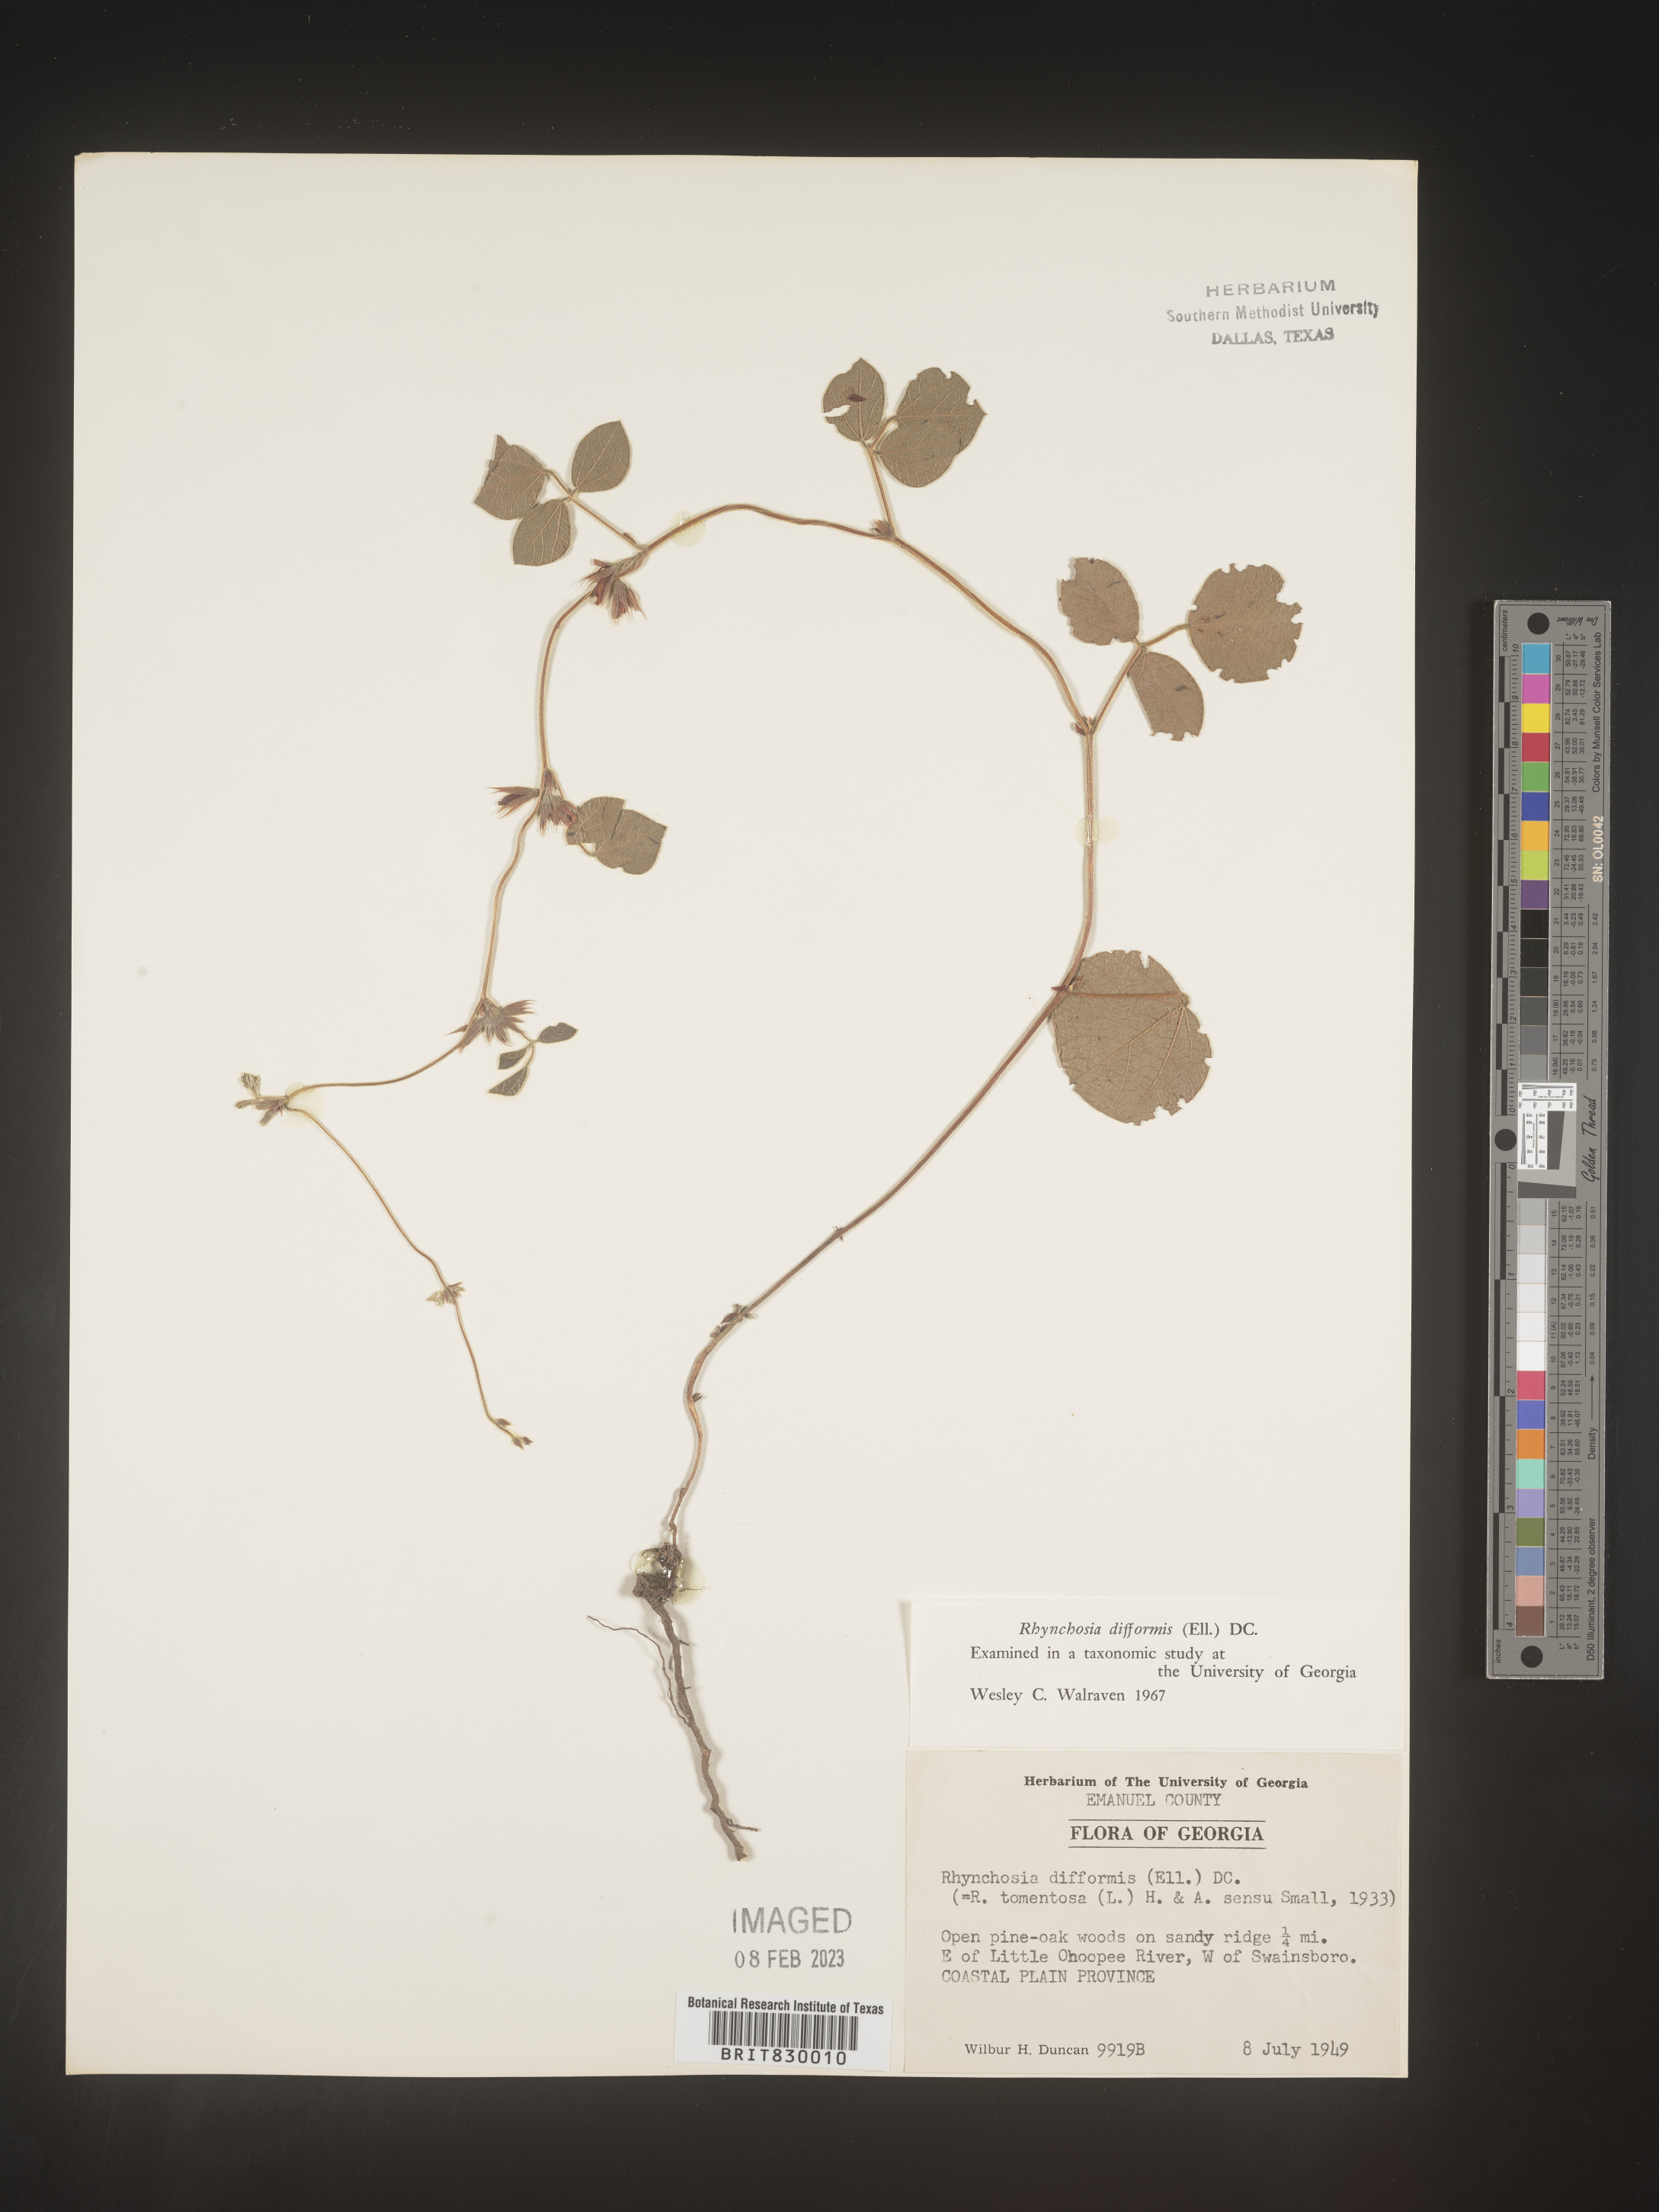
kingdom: Plantae
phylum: Tracheophyta
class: Magnoliopsida
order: Fabales
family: Fabaceae
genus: Rhynchosia
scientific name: Rhynchosia difformis
